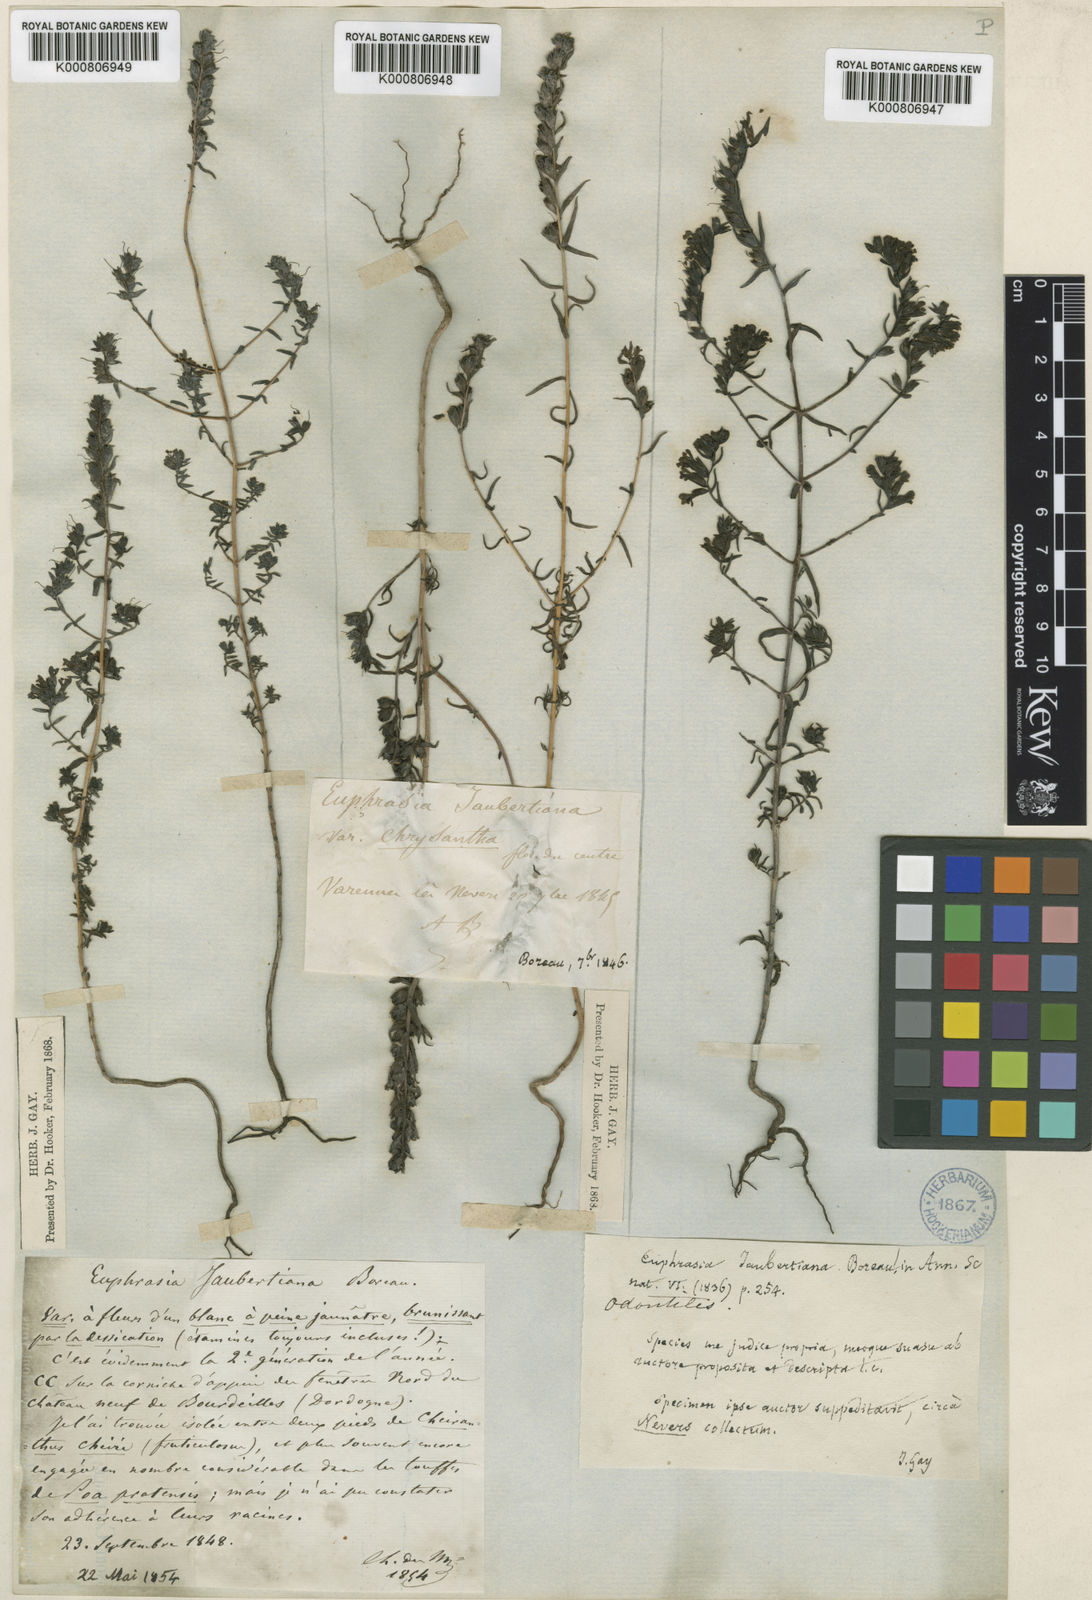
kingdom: Plantae
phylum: Tracheophyta
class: Magnoliopsida
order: Lamiales
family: Orobanchaceae
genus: Odontites
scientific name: Odontites
